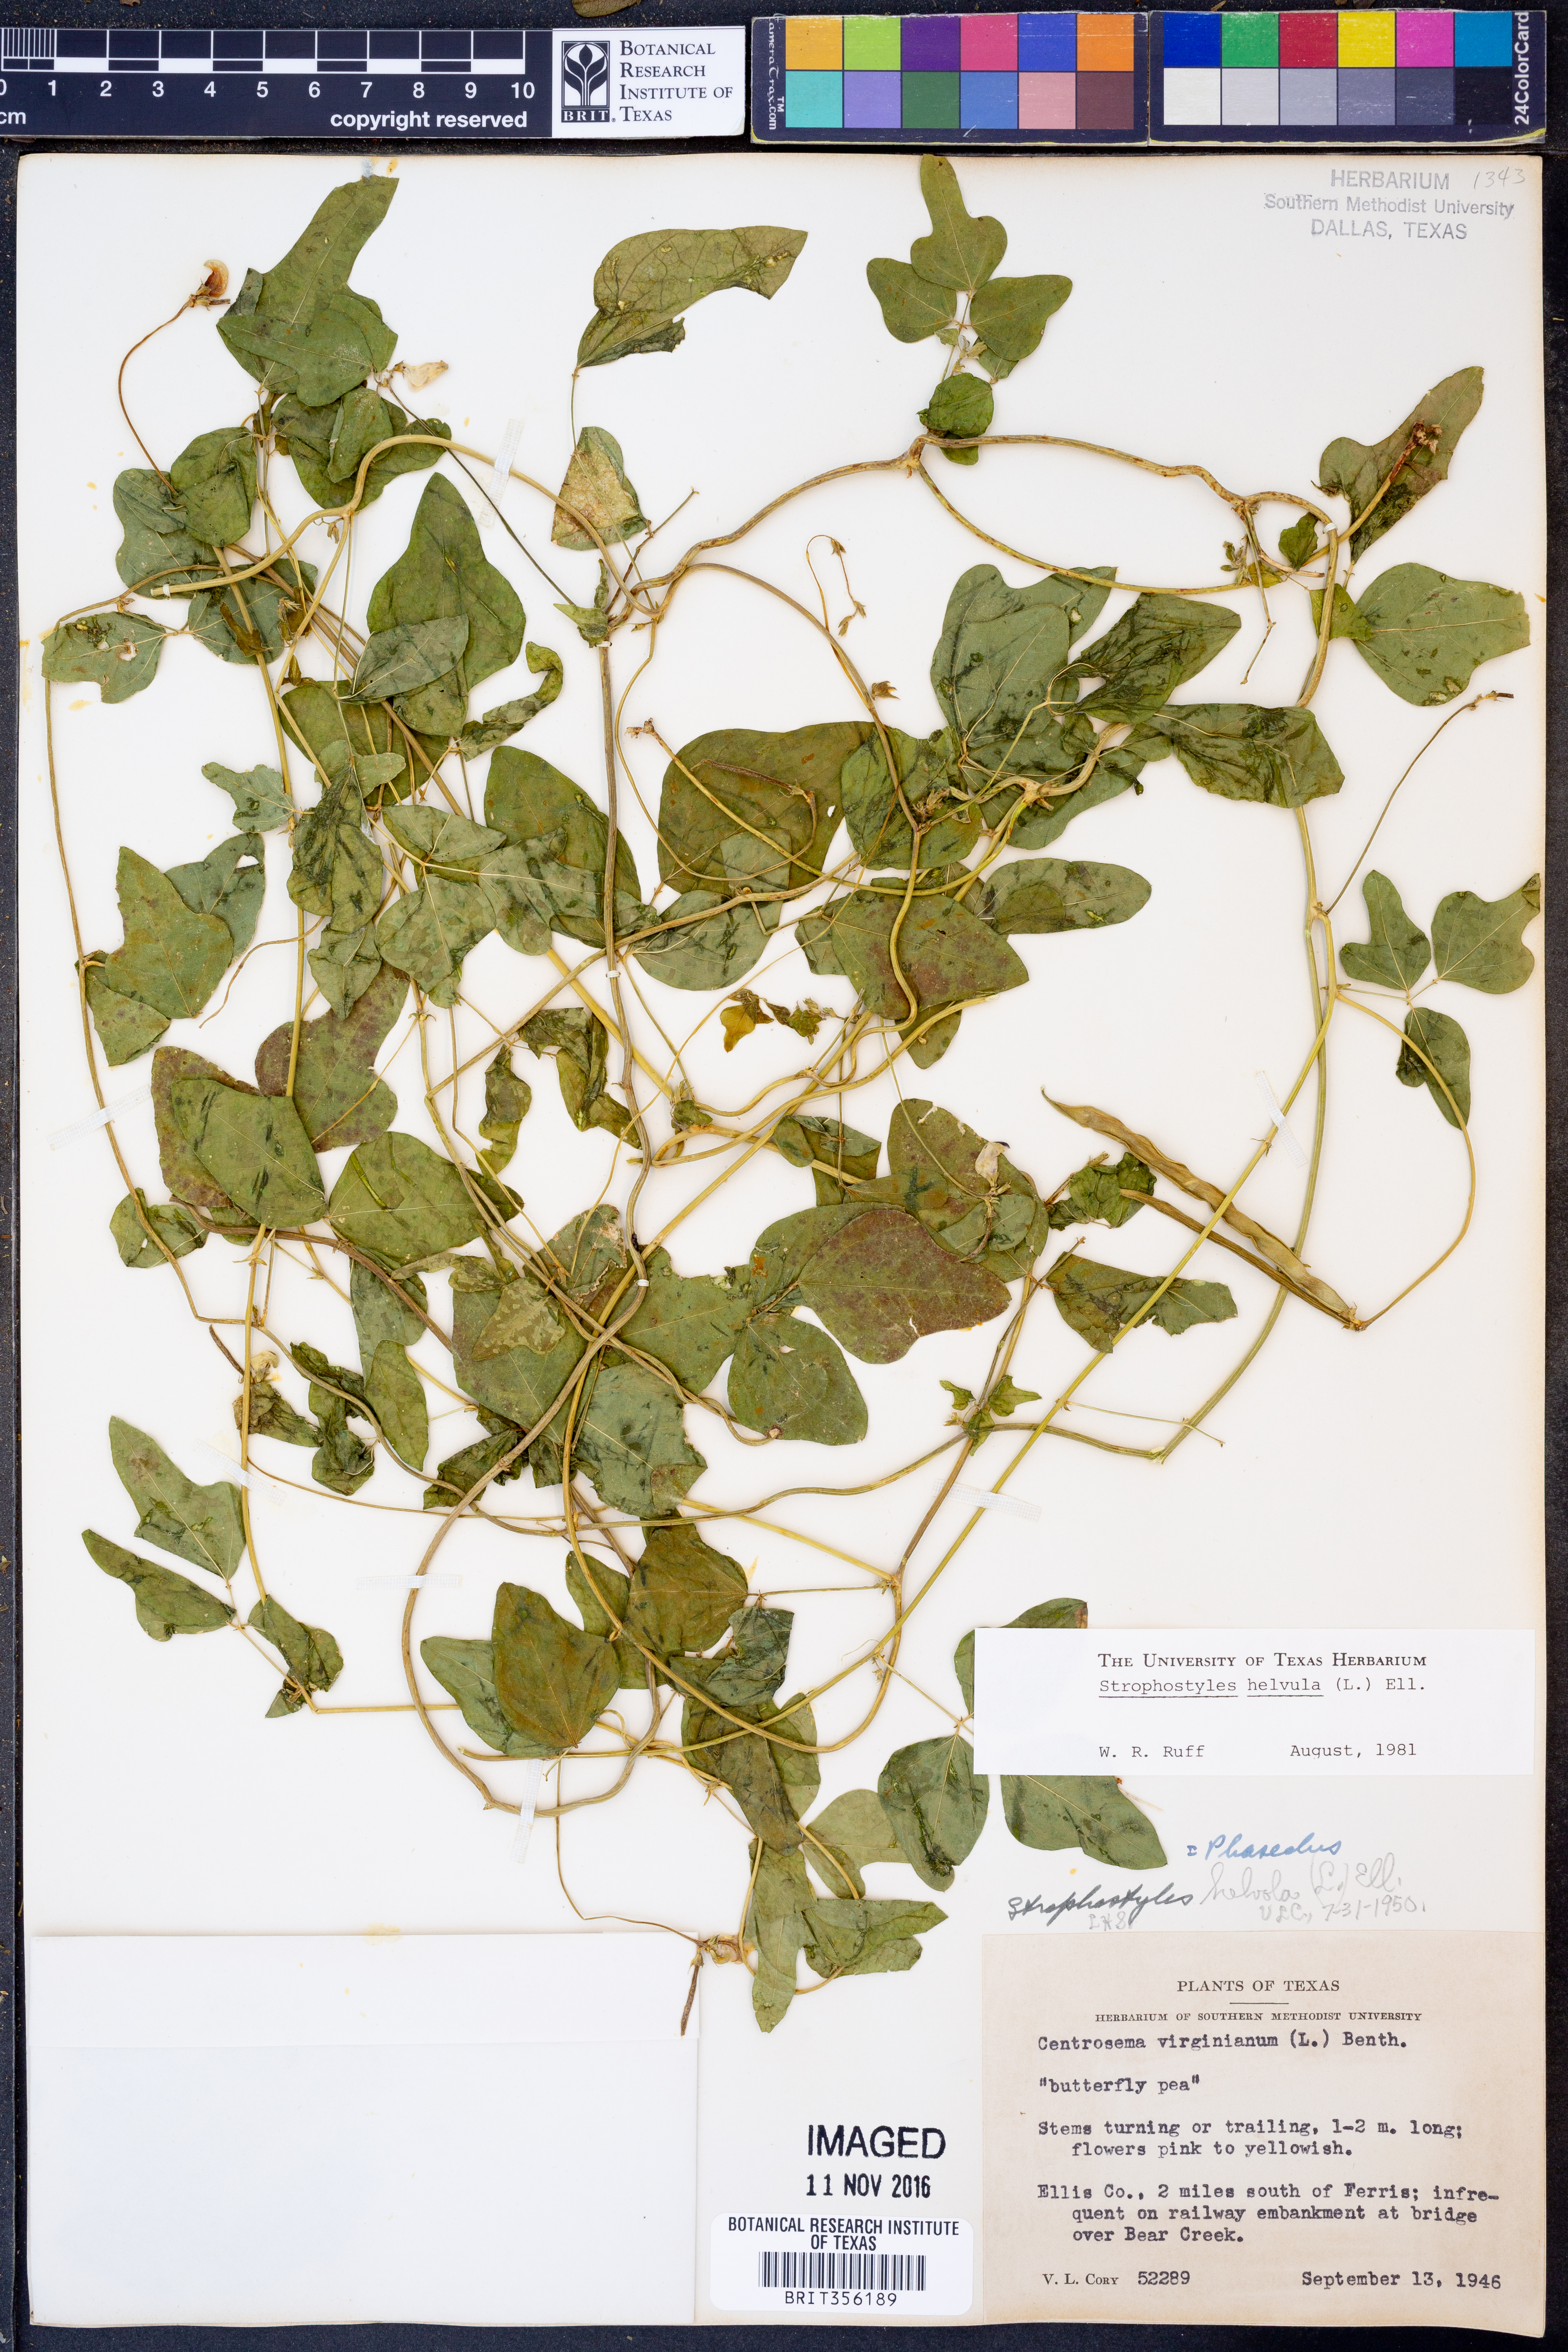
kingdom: Plantae
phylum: Tracheophyta
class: Magnoliopsida
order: Fabales
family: Fabaceae
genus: Strophostyles
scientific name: Strophostyles helvula
